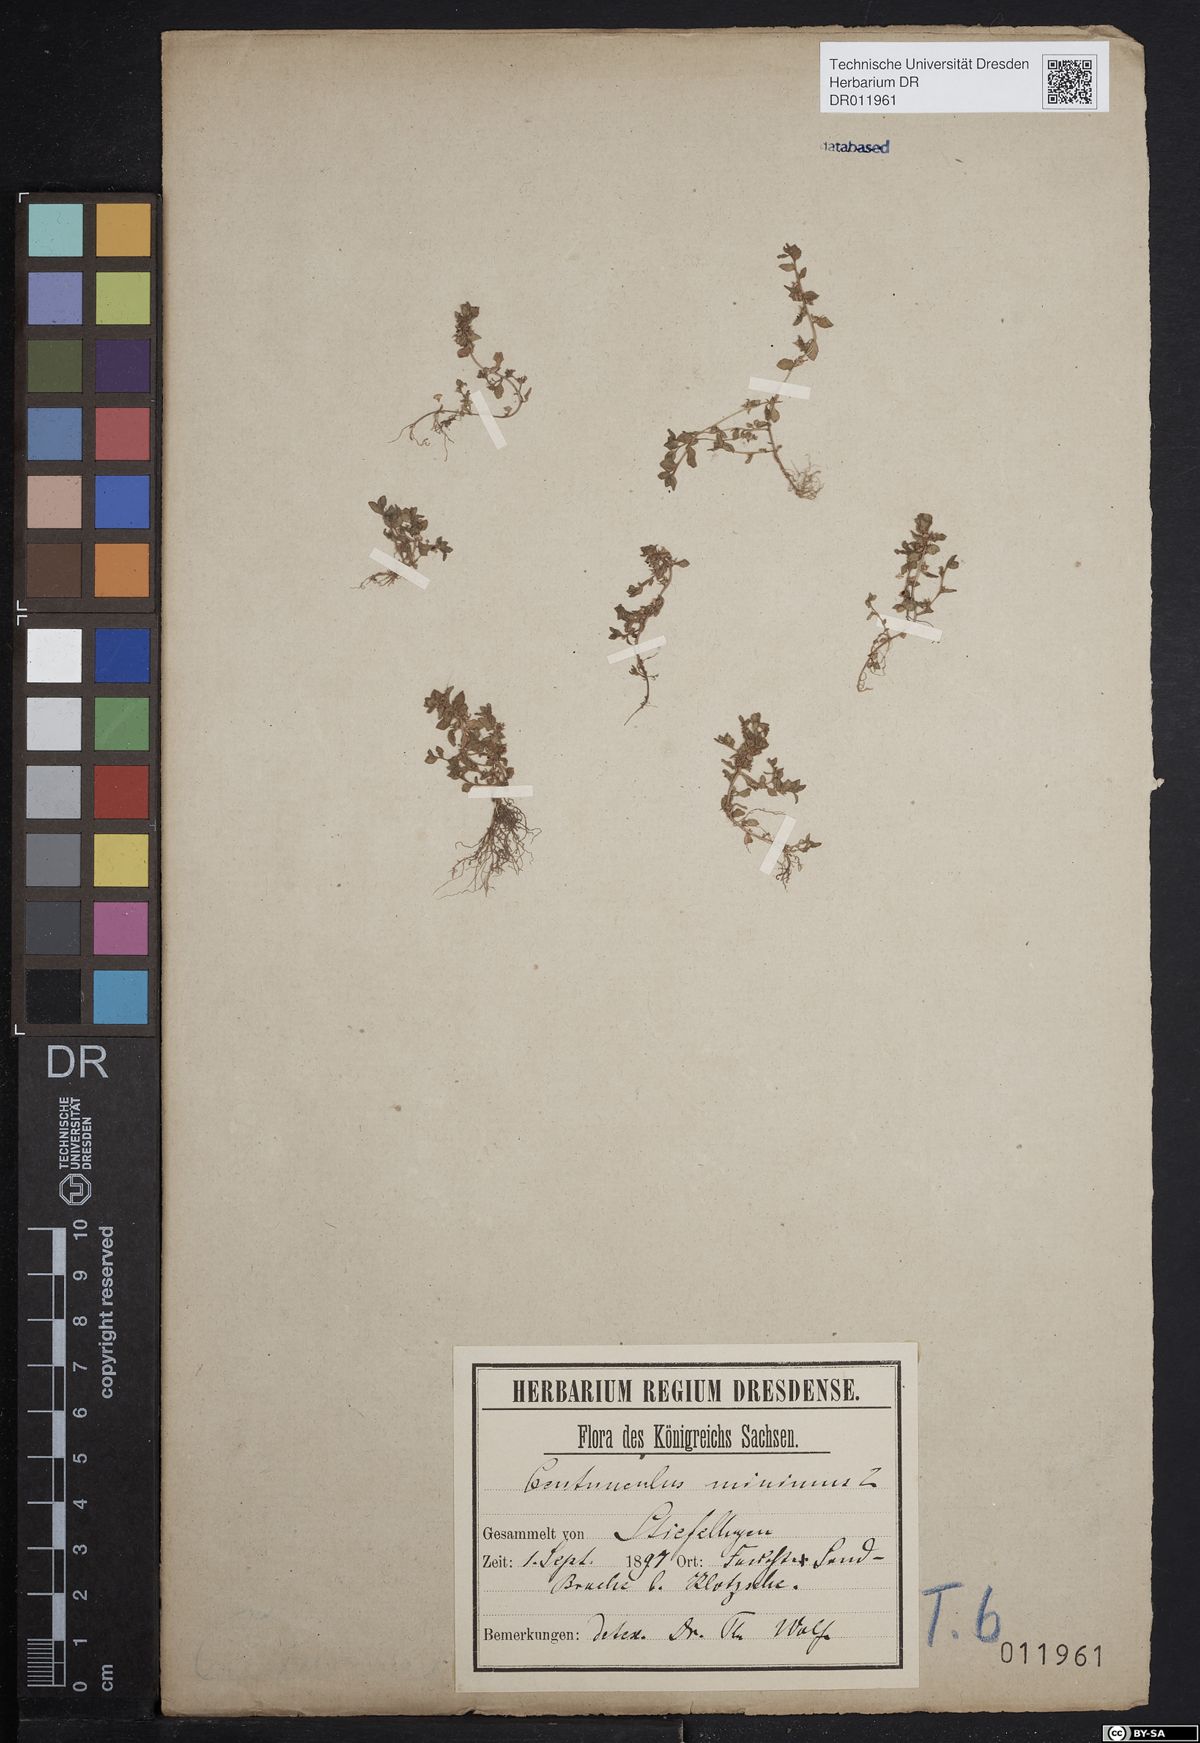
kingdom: Plantae
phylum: Tracheophyta
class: Magnoliopsida
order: Ericales
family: Primulaceae
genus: Lysimachia
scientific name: Lysimachia minima
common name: Chaffweed
